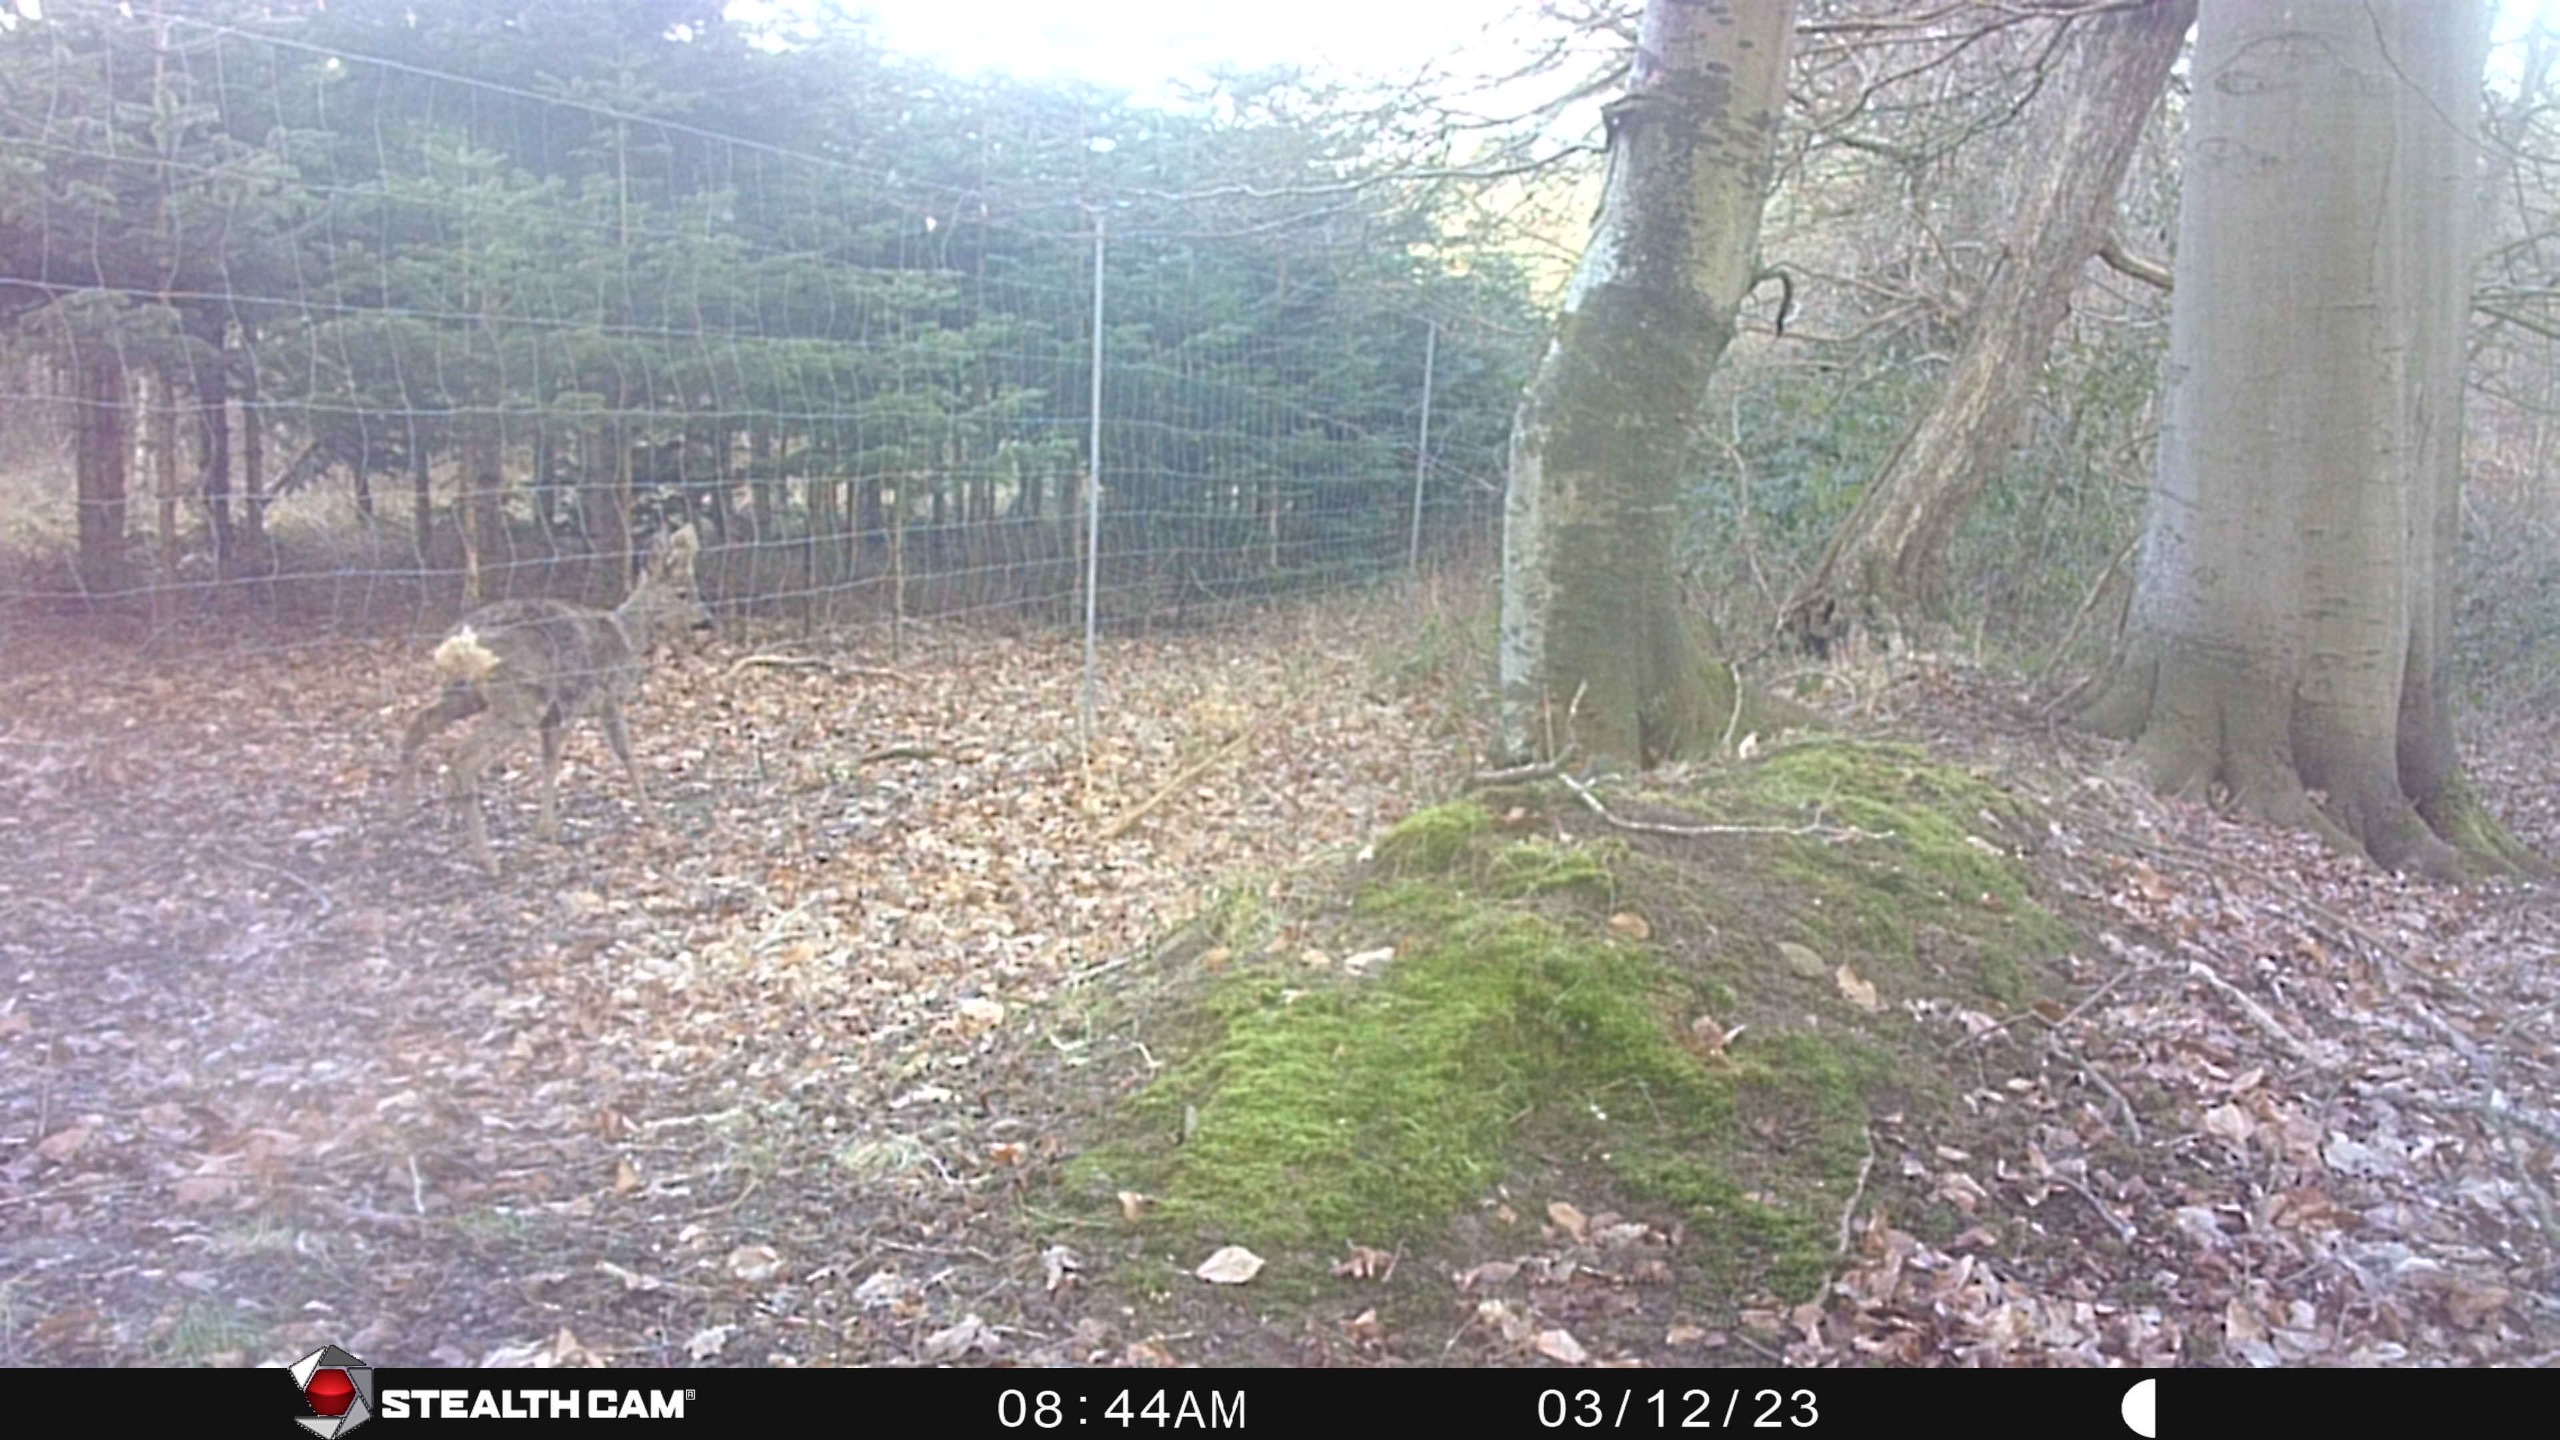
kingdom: Animalia
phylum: Chordata
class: Mammalia
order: Artiodactyla
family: Cervidae
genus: Capreolus
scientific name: Capreolus capreolus
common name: Rådyr
